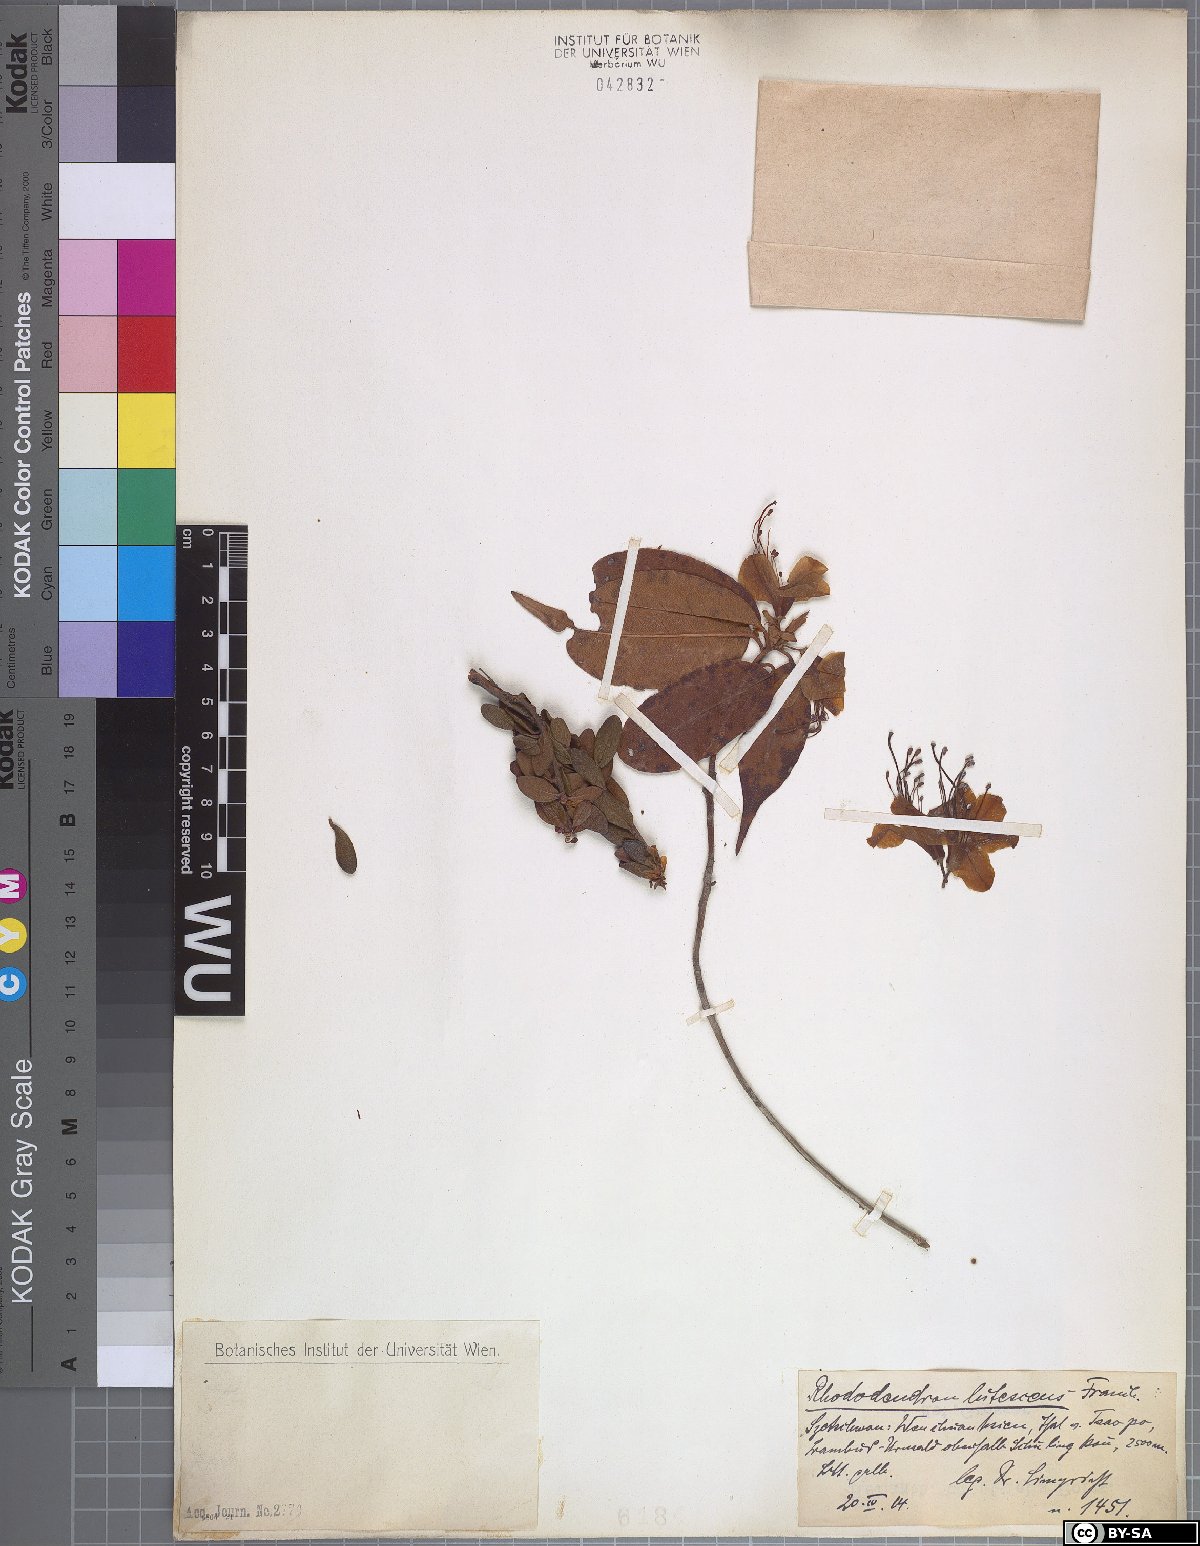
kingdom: Plantae
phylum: Tracheophyta
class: Magnoliopsida
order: Ericales
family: Ericaceae
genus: Rhododendron
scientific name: Rhododendron lutescens
